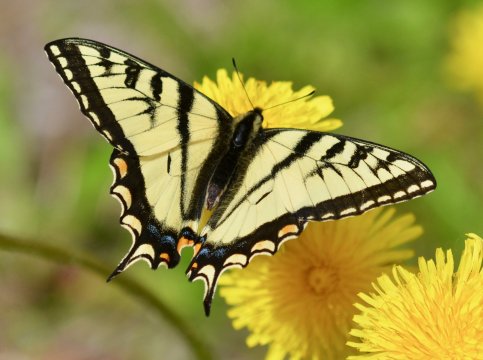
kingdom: Animalia
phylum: Arthropoda
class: Insecta
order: Lepidoptera
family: Papilionidae
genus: Pterourus
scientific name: Pterourus canadensis
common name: Canadian Tiger Swallowtail
